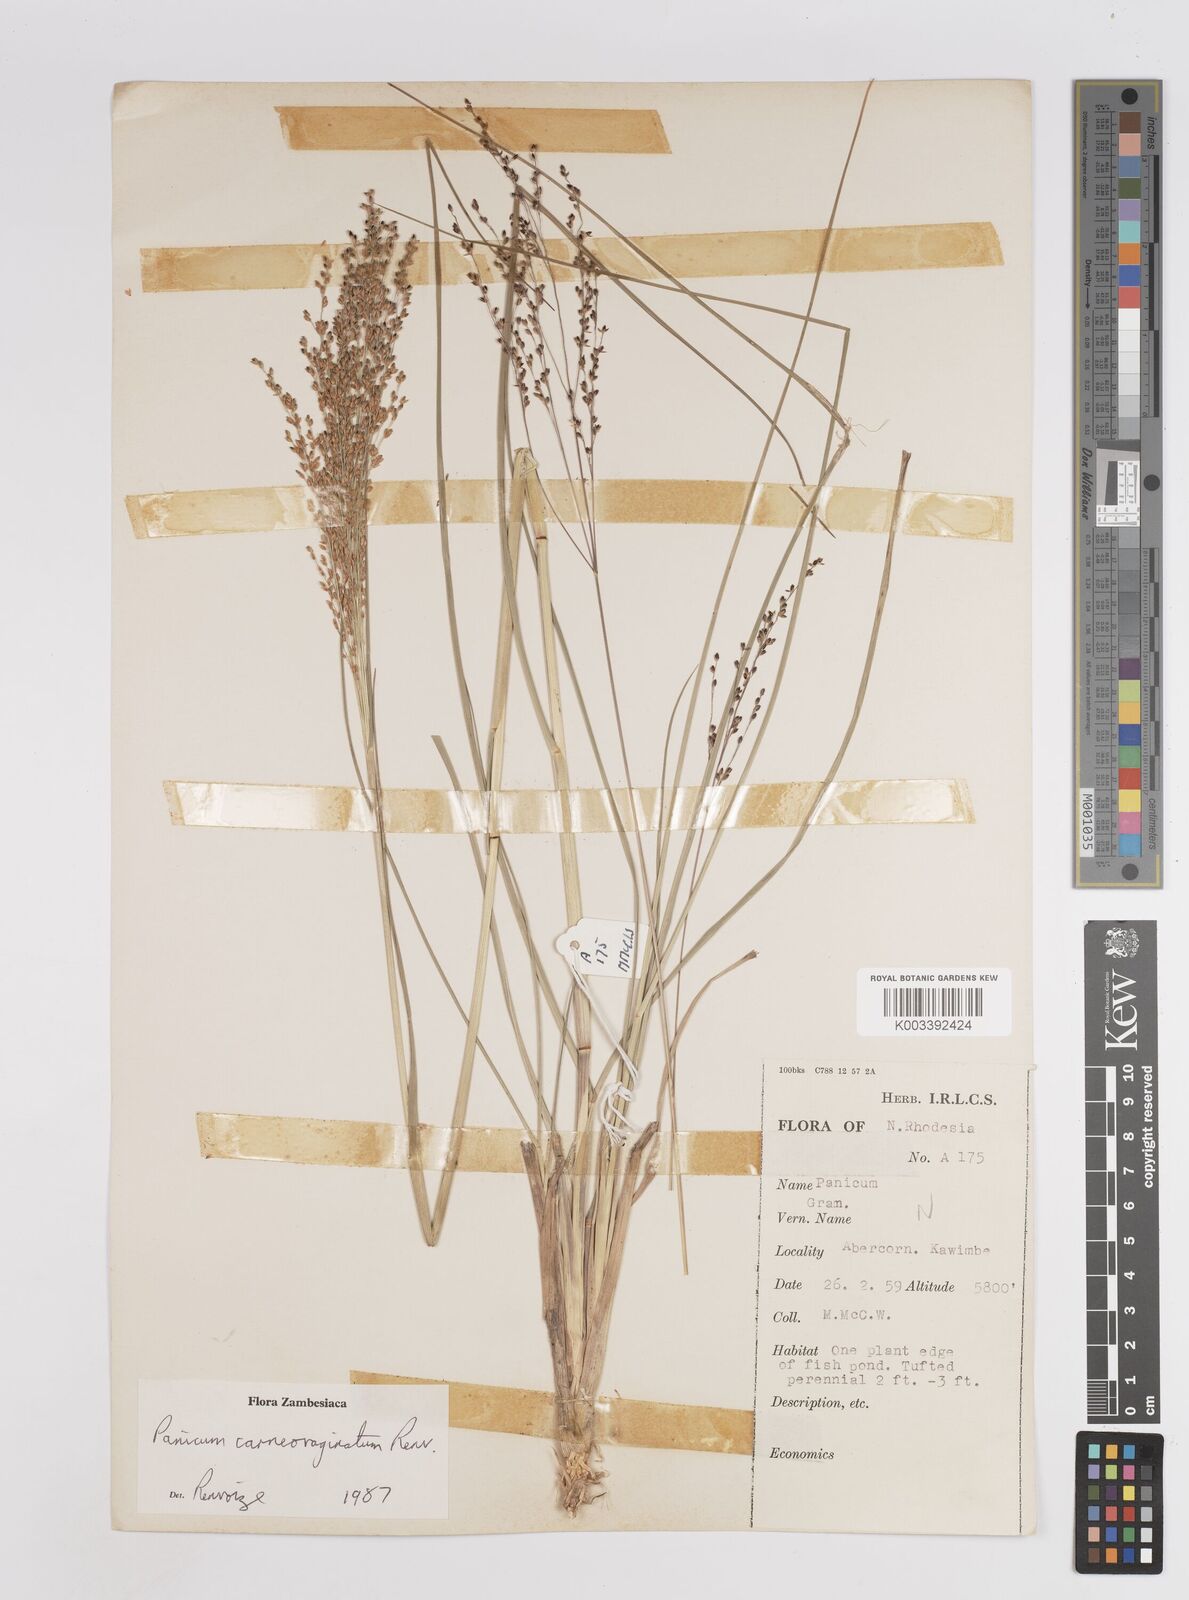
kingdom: Plantae
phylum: Tracheophyta
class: Liliopsida
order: Poales
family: Poaceae
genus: Panicum
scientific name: Panicum carneovaginatum
